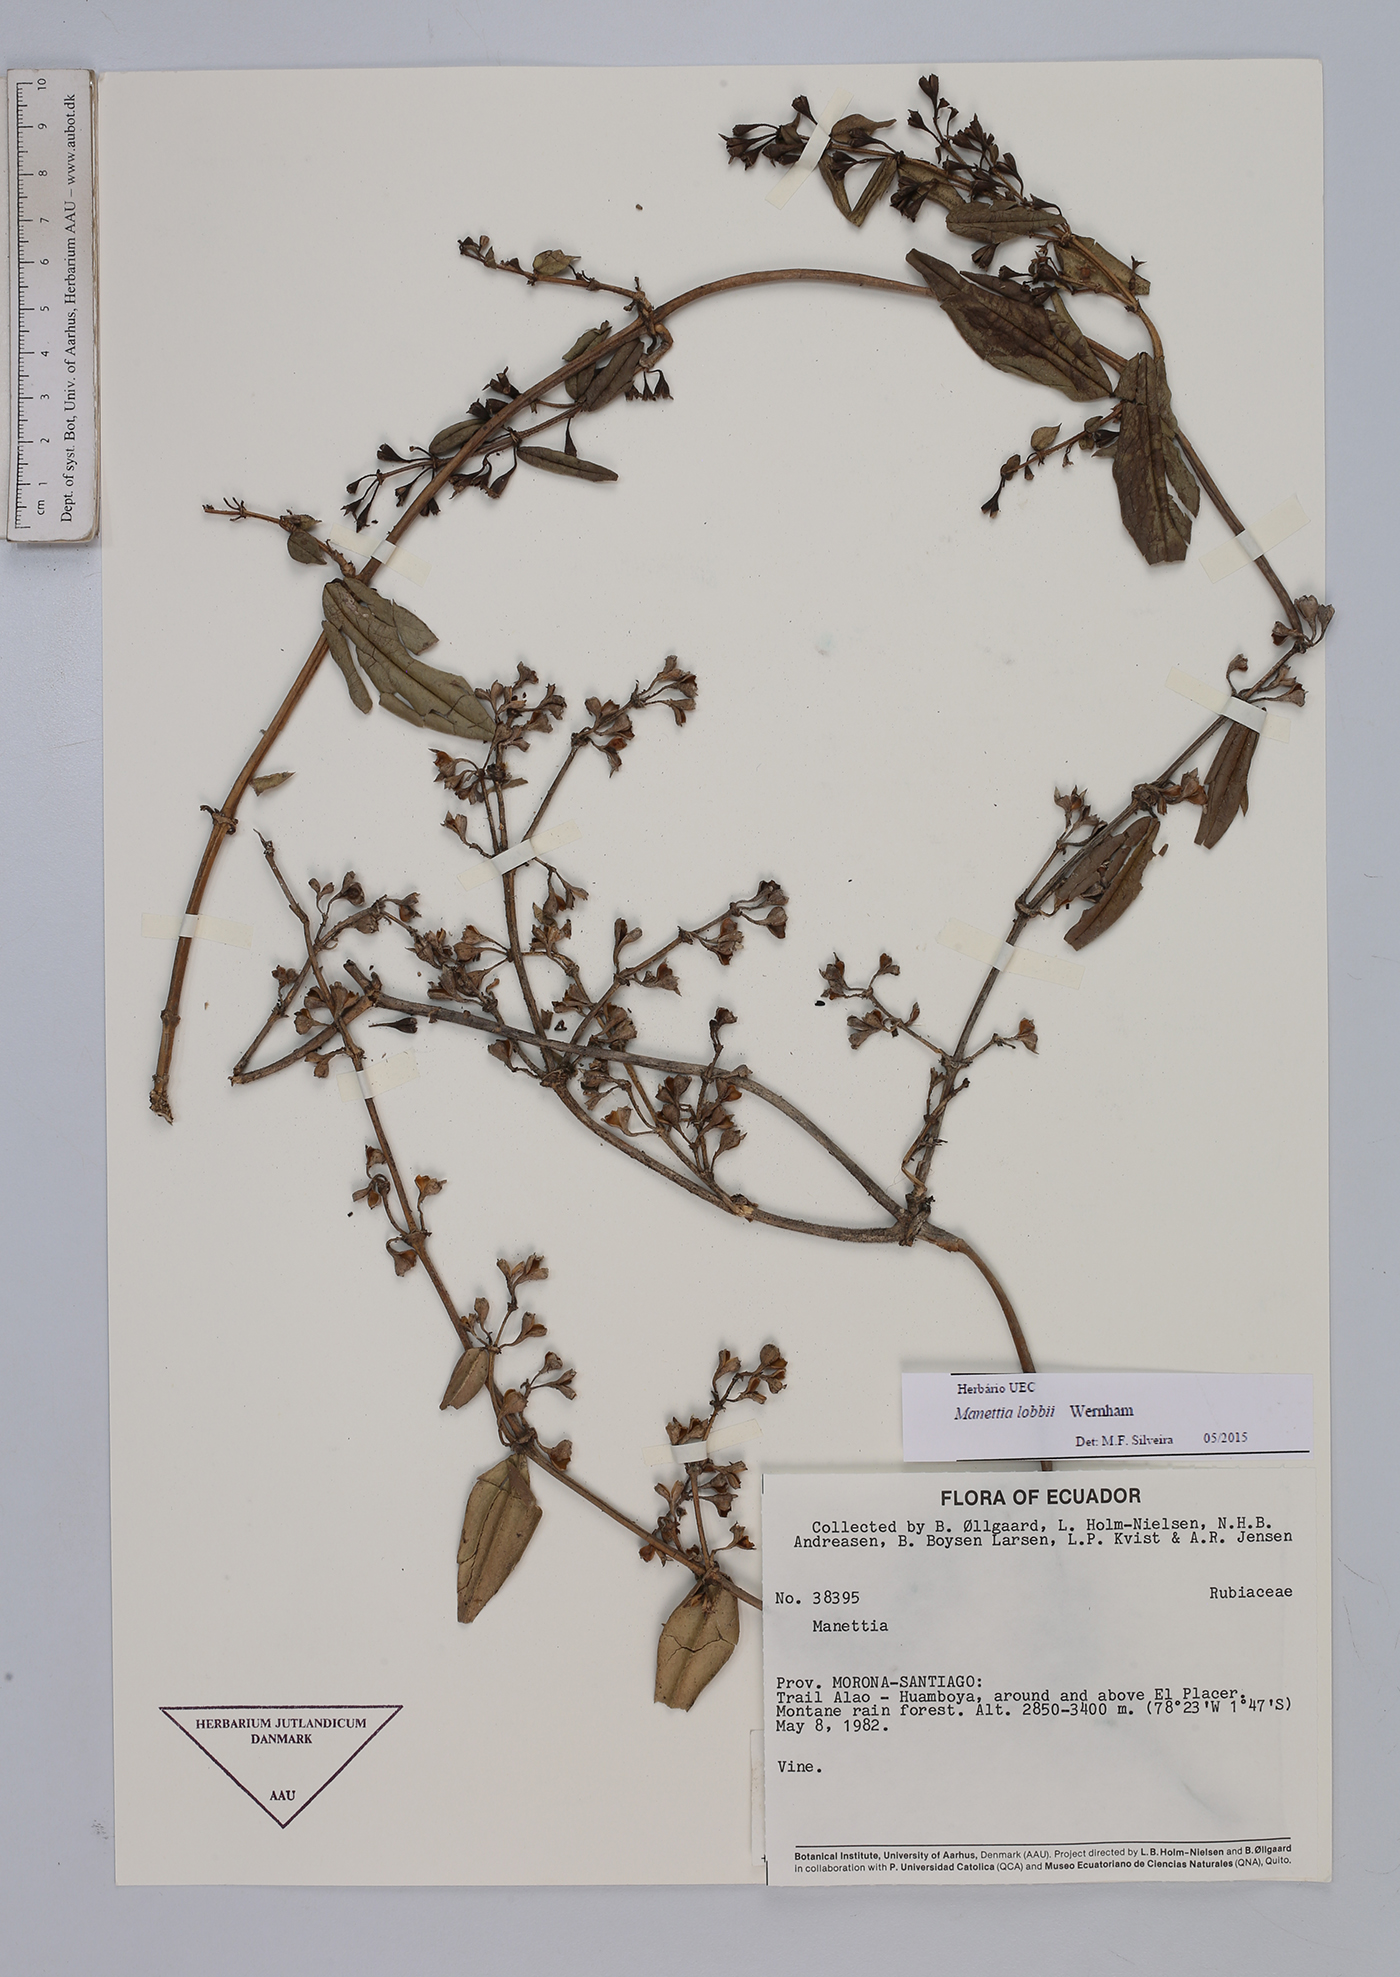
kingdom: Plantae
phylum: Tracheophyta
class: Magnoliopsida
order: Gentianales
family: Rubiaceae
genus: Manettia
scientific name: Manettia lobbii
